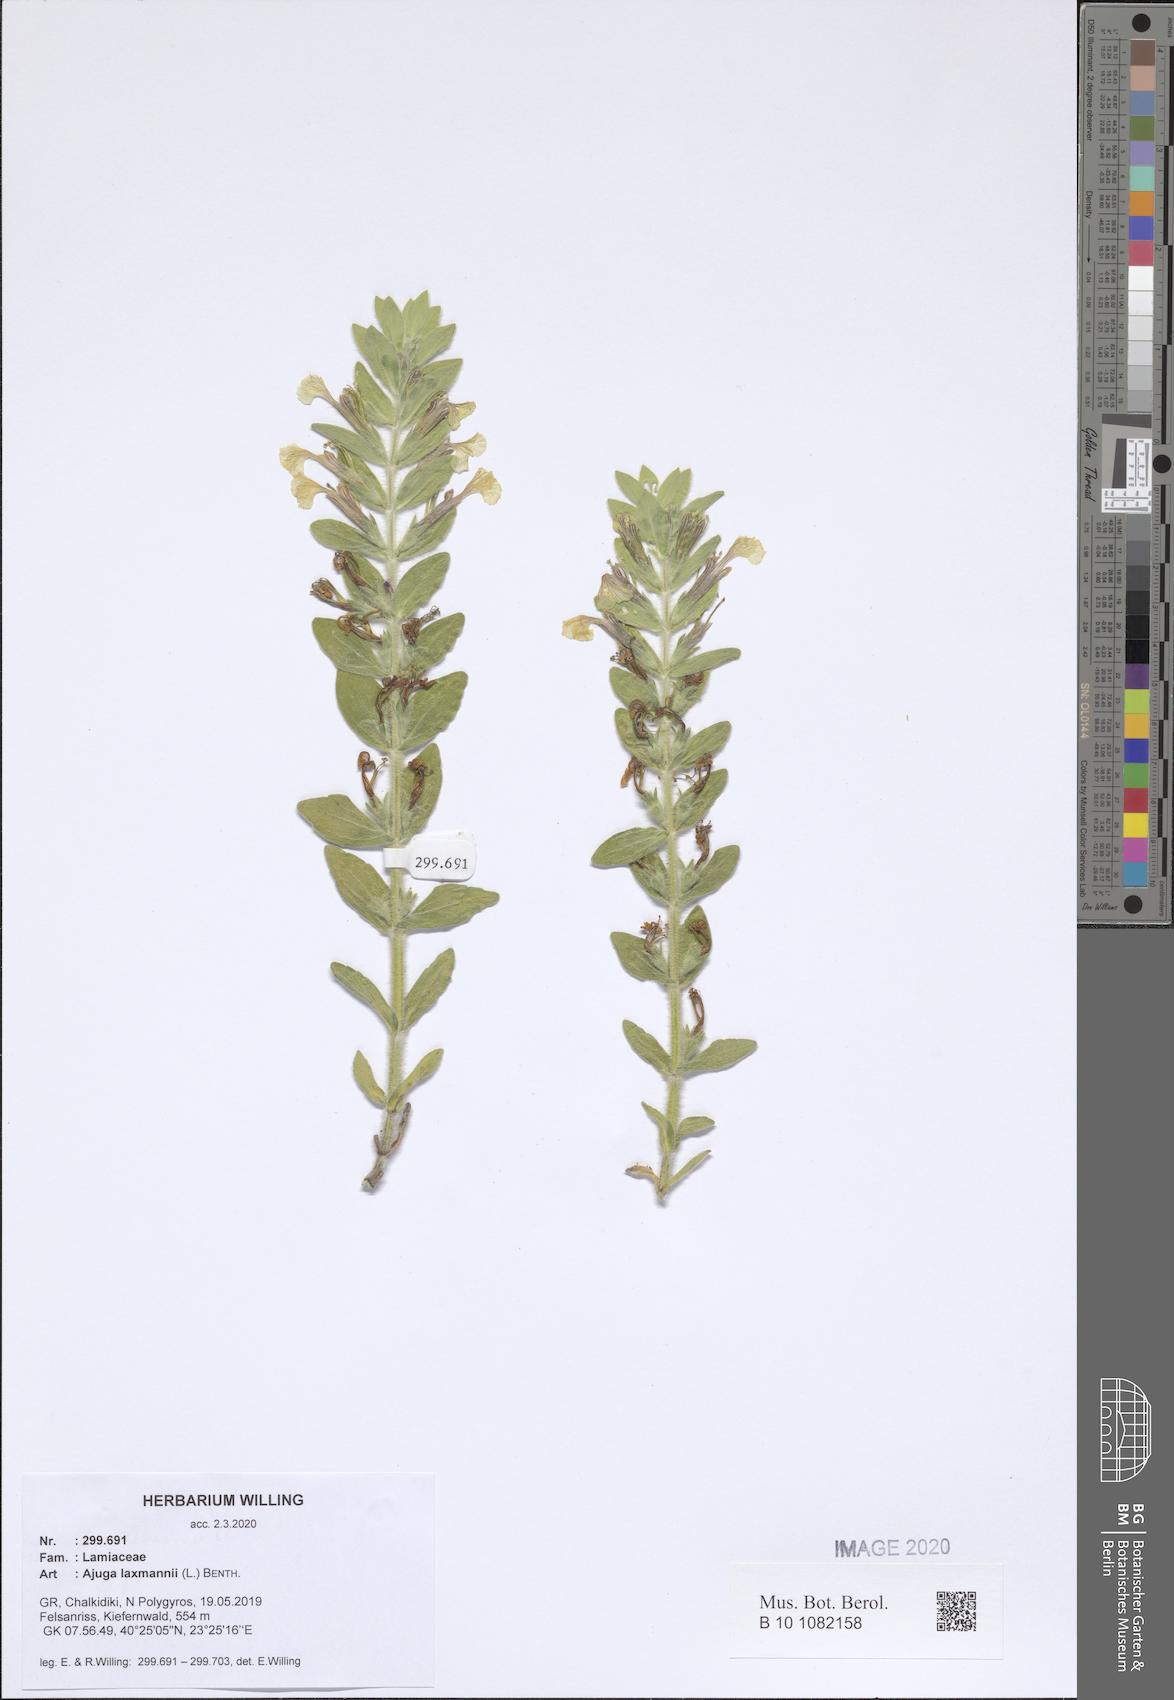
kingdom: Plantae
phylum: Tracheophyta
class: Magnoliopsida
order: Lamiales
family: Lamiaceae
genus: Ajuga
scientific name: Ajuga laxmannii
